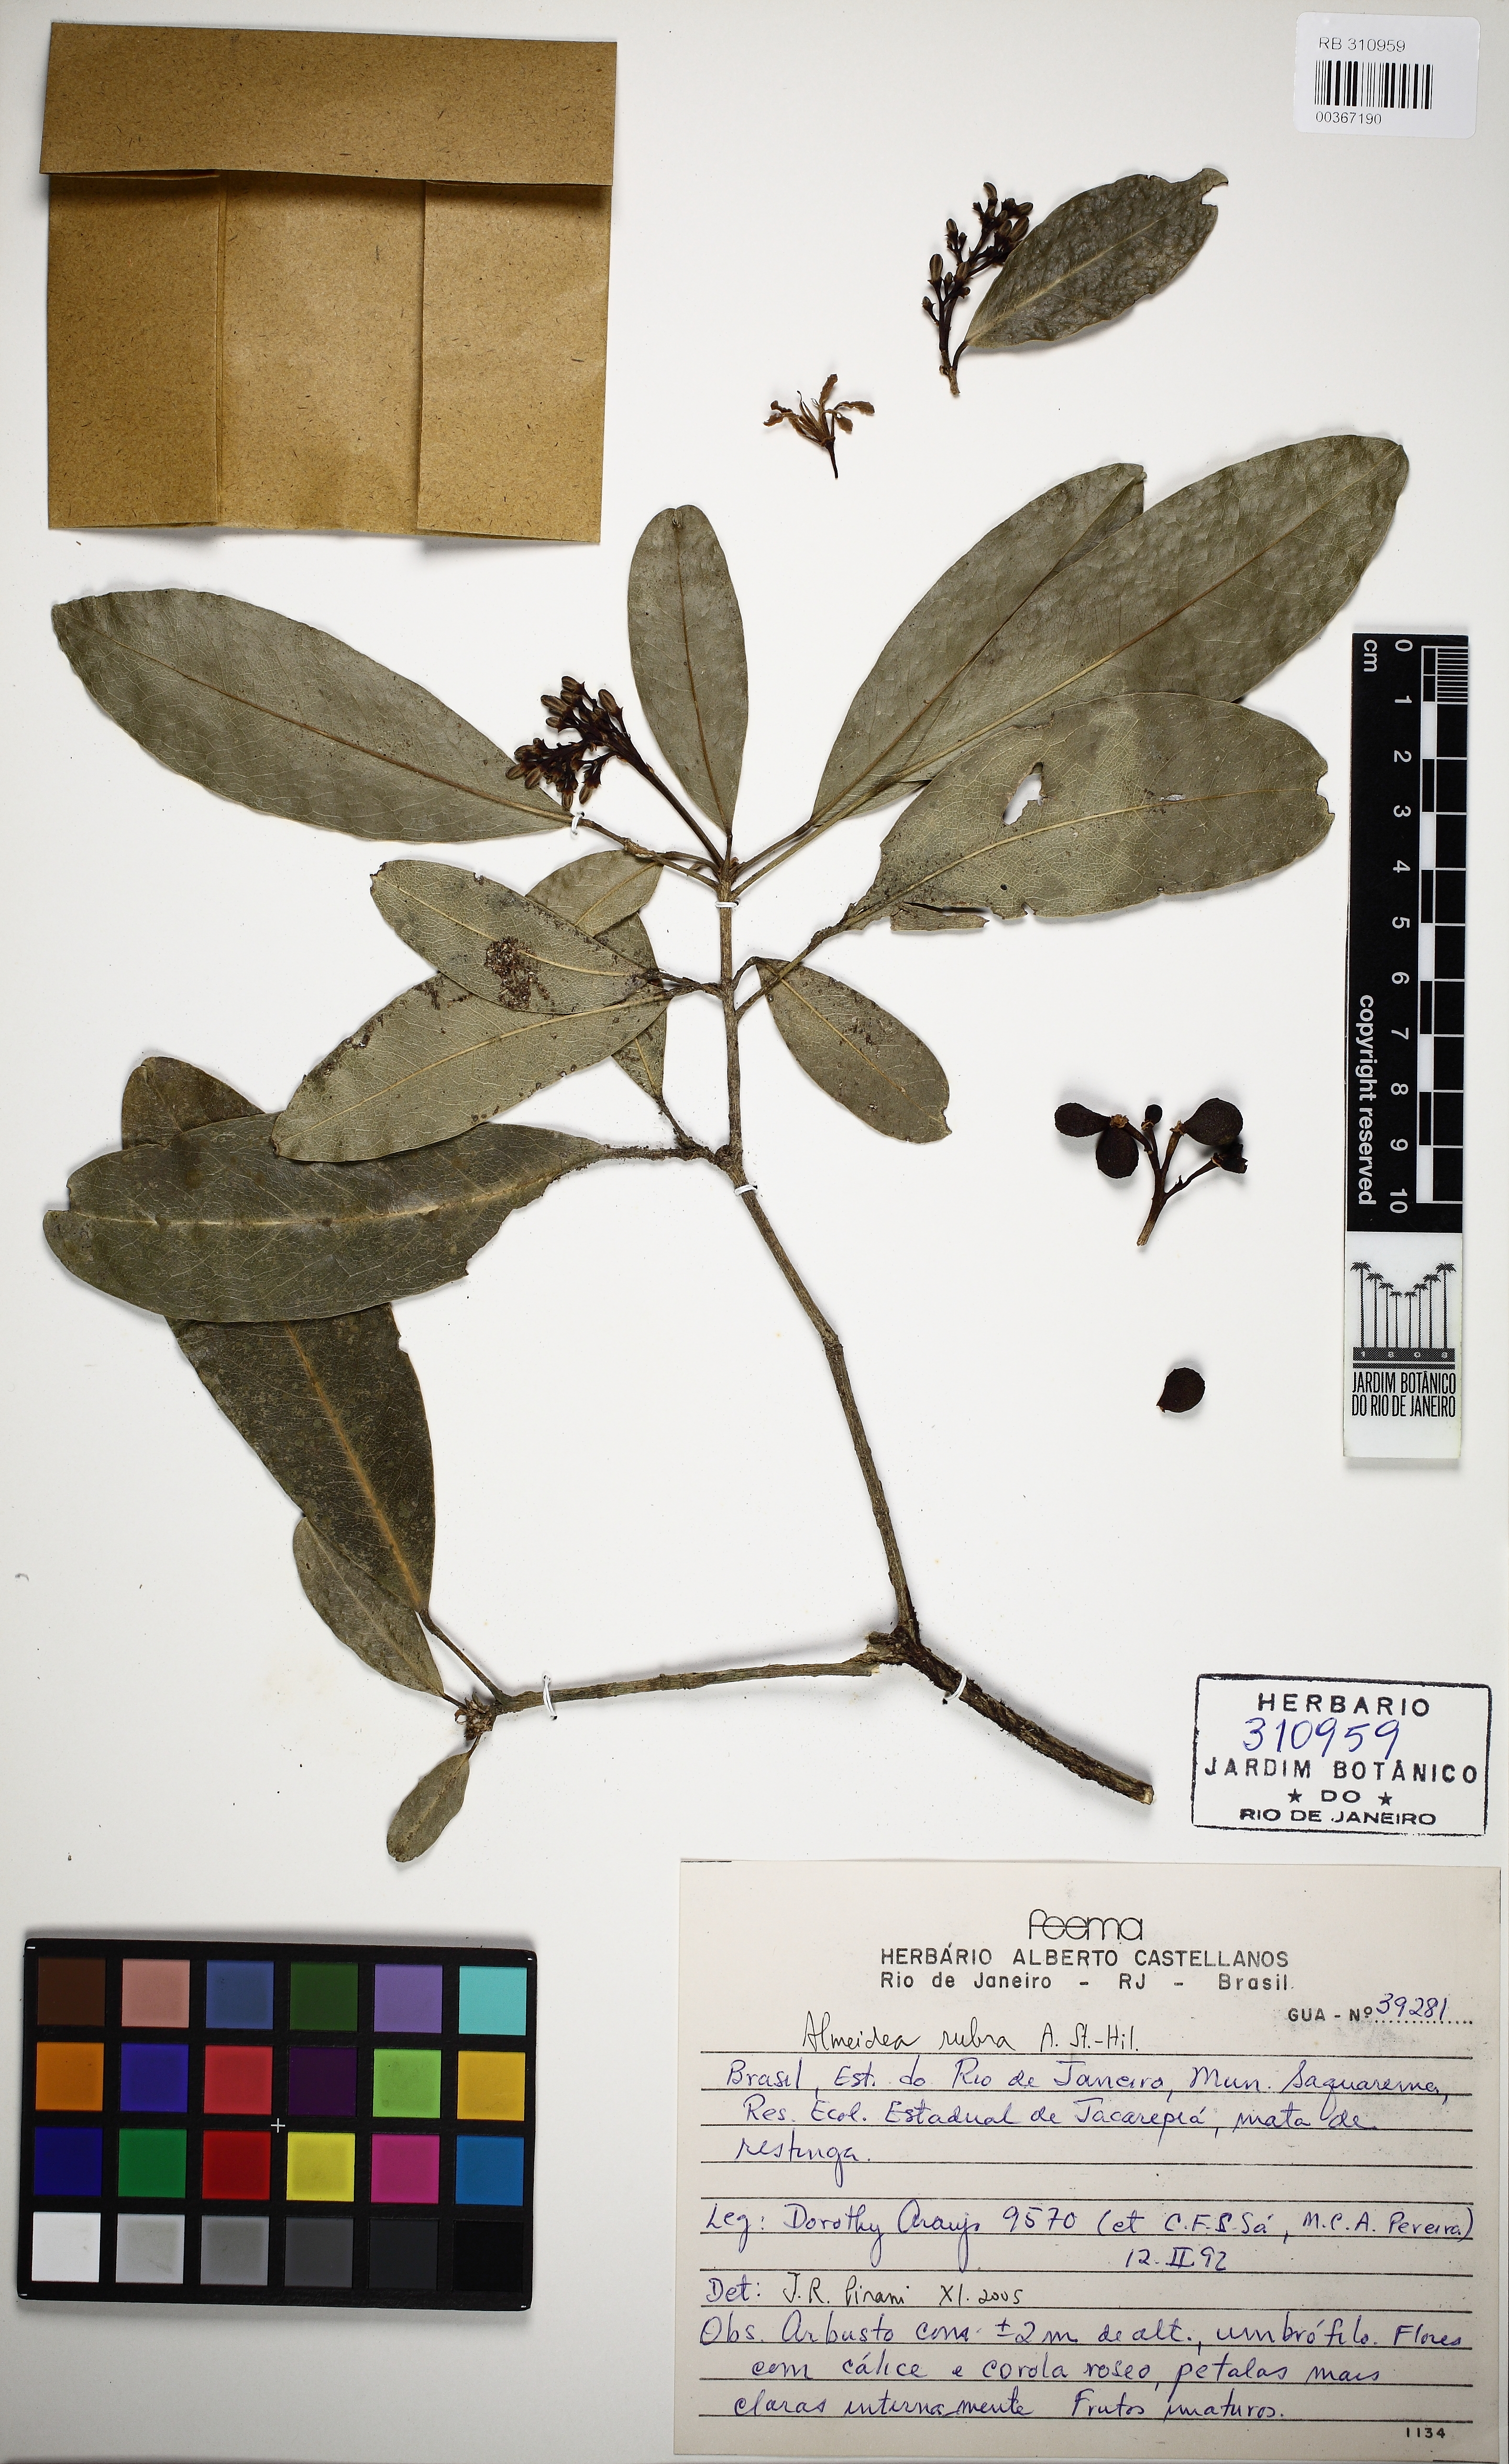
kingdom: Plantae
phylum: Tracheophyta
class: Magnoliopsida
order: Sapindales
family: Rutaceae
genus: Conchocarpus
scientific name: Conchocarpus ruber
